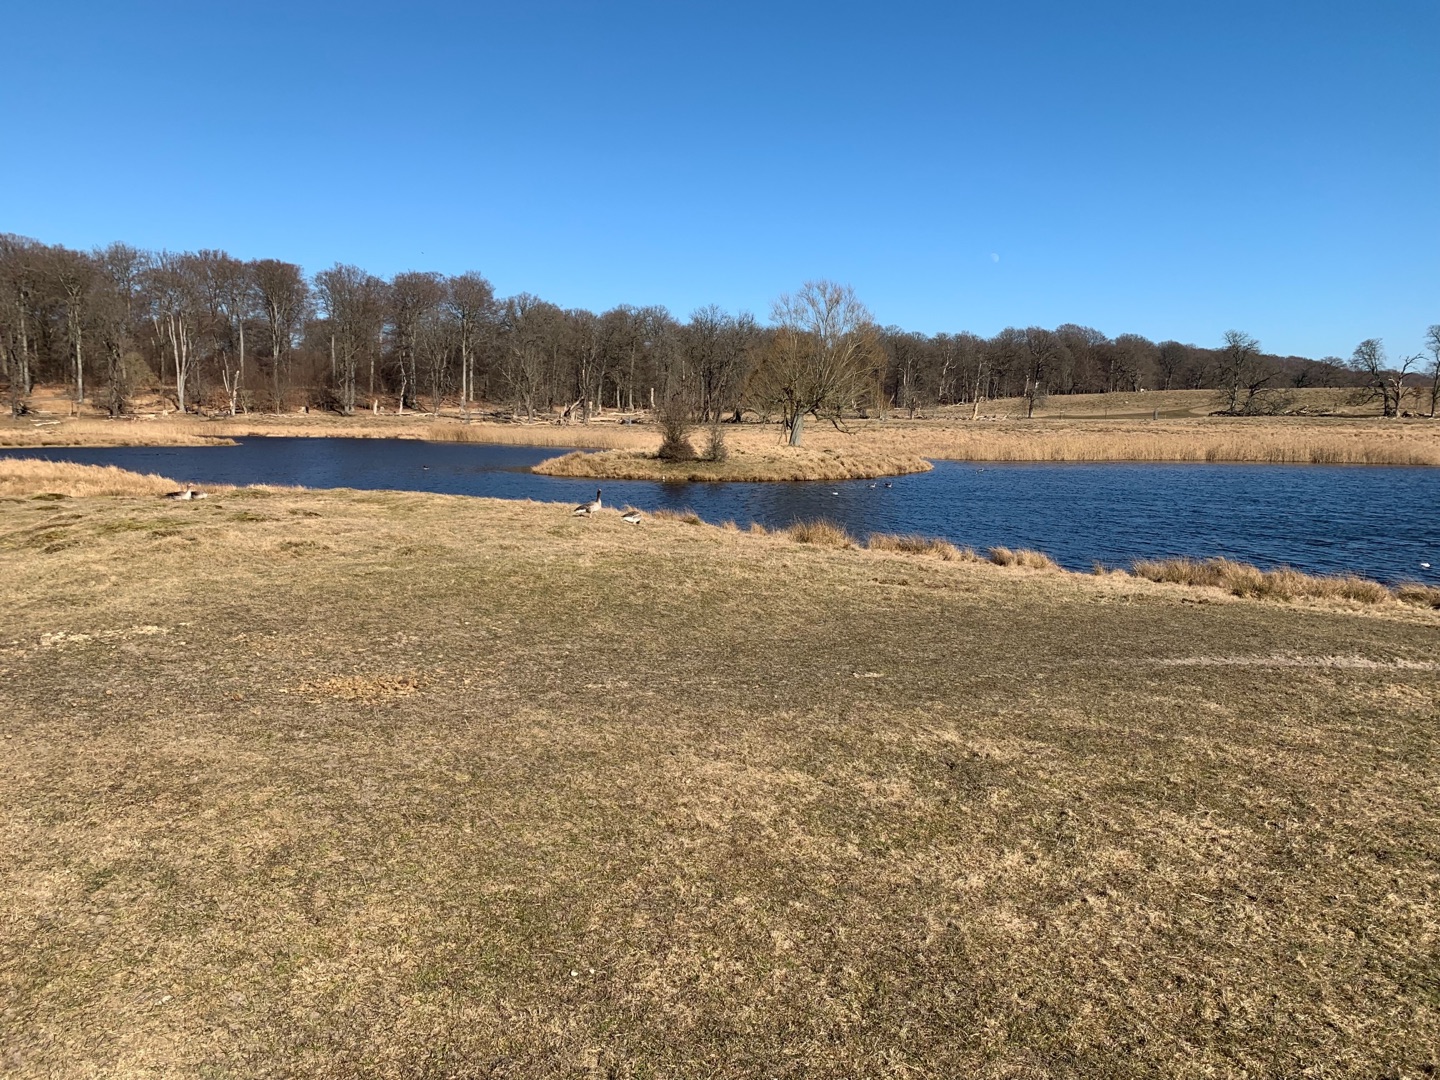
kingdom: Animalia
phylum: Chordata
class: Aves
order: Charadriiformes
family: Laridae
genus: Chroicocephalus
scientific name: Chroicocephalus ridibundus
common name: Hættemåge
